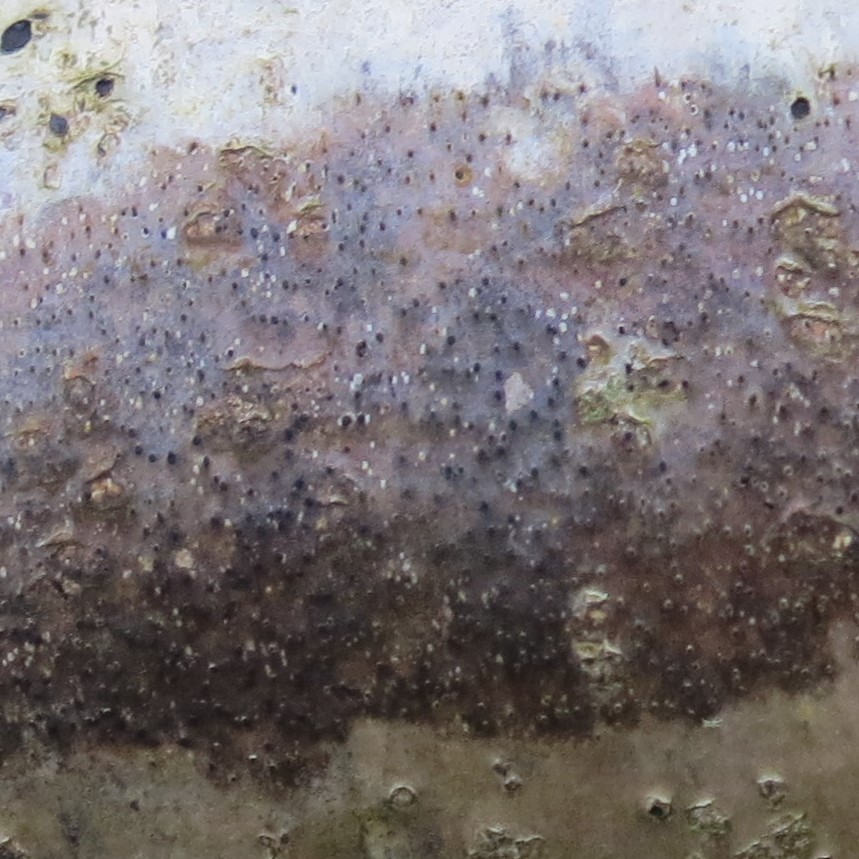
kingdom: Fungi
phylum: Ascomycota
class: Lecanoromycetes
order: Ostropales
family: Porinaceae
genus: Pseudosagedia
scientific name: Pseudosagedia aenea
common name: grønlig porina
